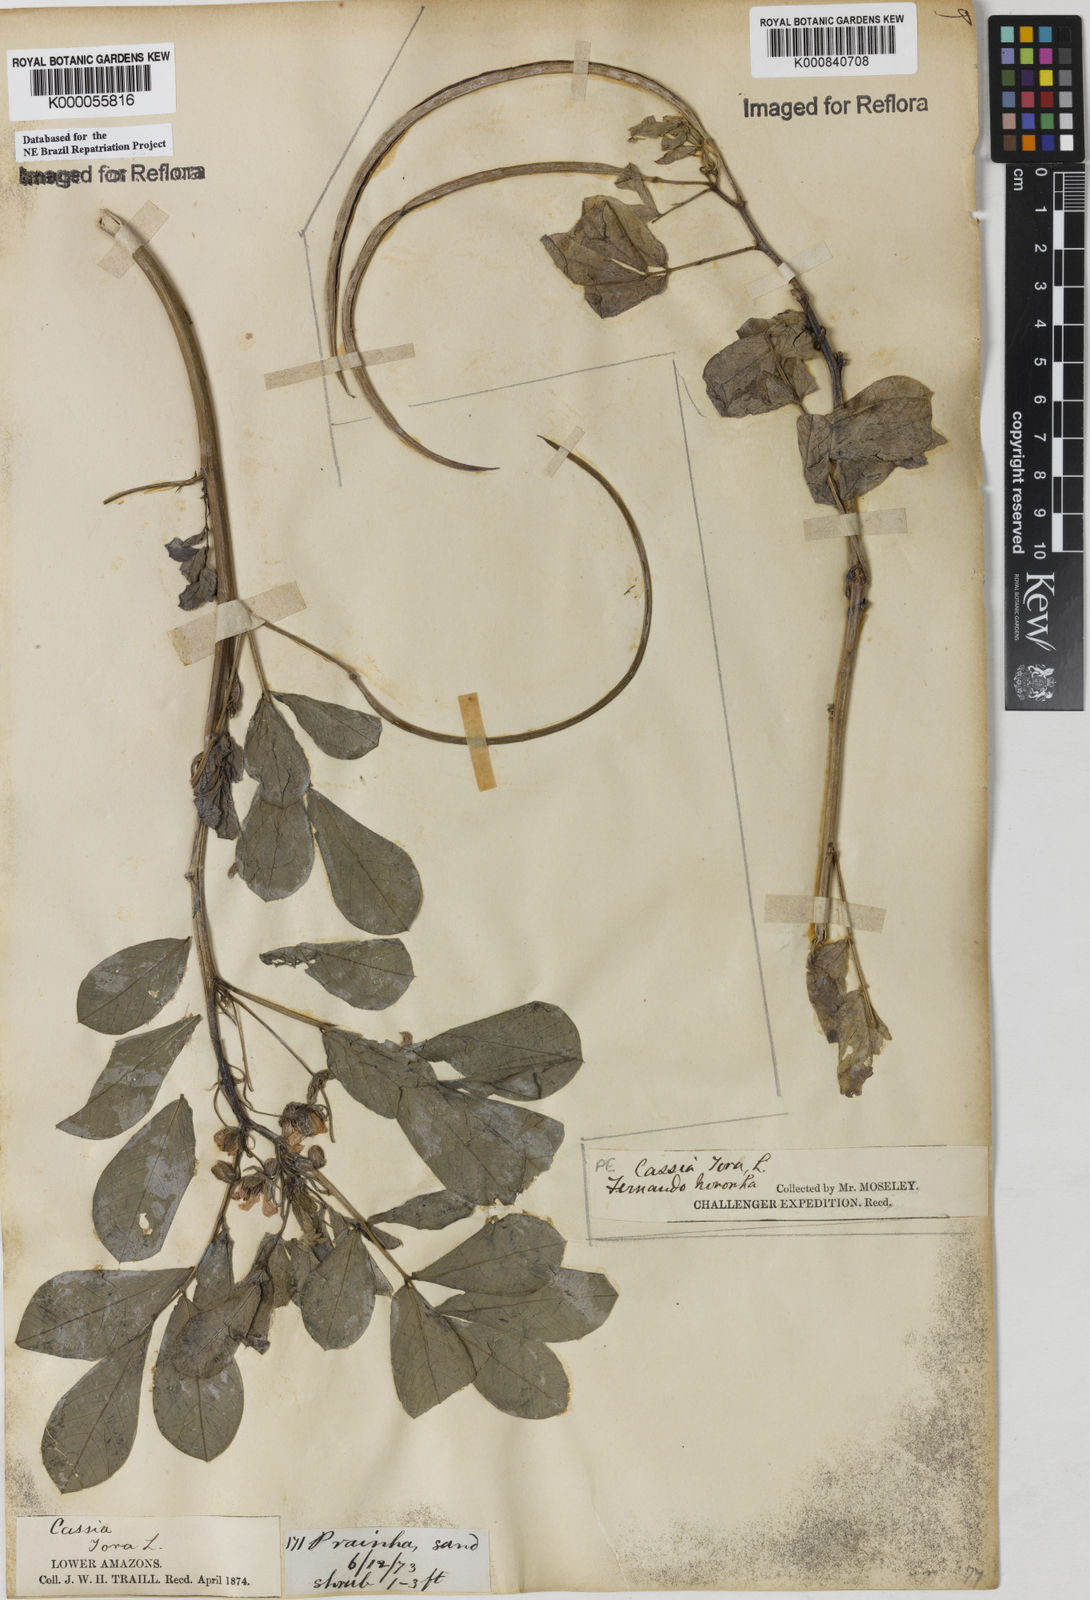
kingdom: Plantae
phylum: Tracheophyta
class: Magnoliopsida
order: Fabales
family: Fabaceae
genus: Senna
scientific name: Senna obtusifolia
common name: Java-bean
